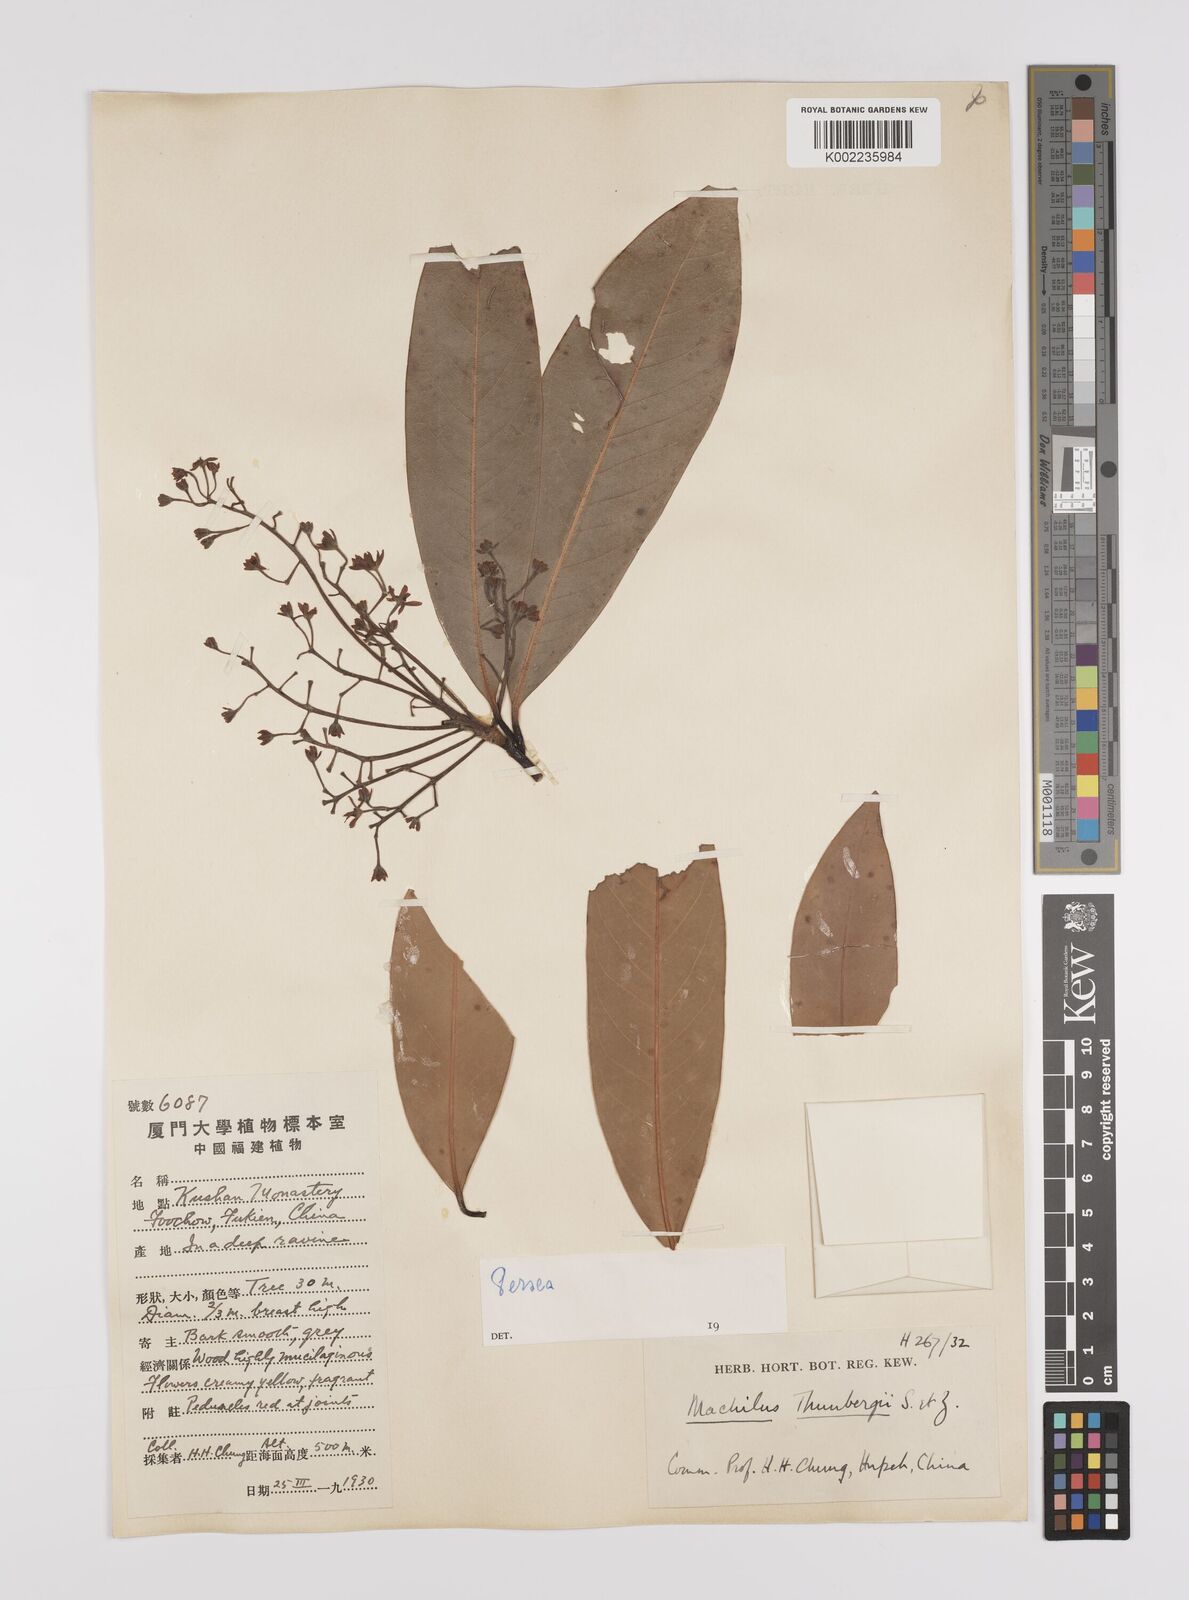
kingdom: Plantae
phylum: Tracheophyta
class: Magnoliopsida
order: Laurales
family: Lauraceae
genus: Persea
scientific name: Persea
